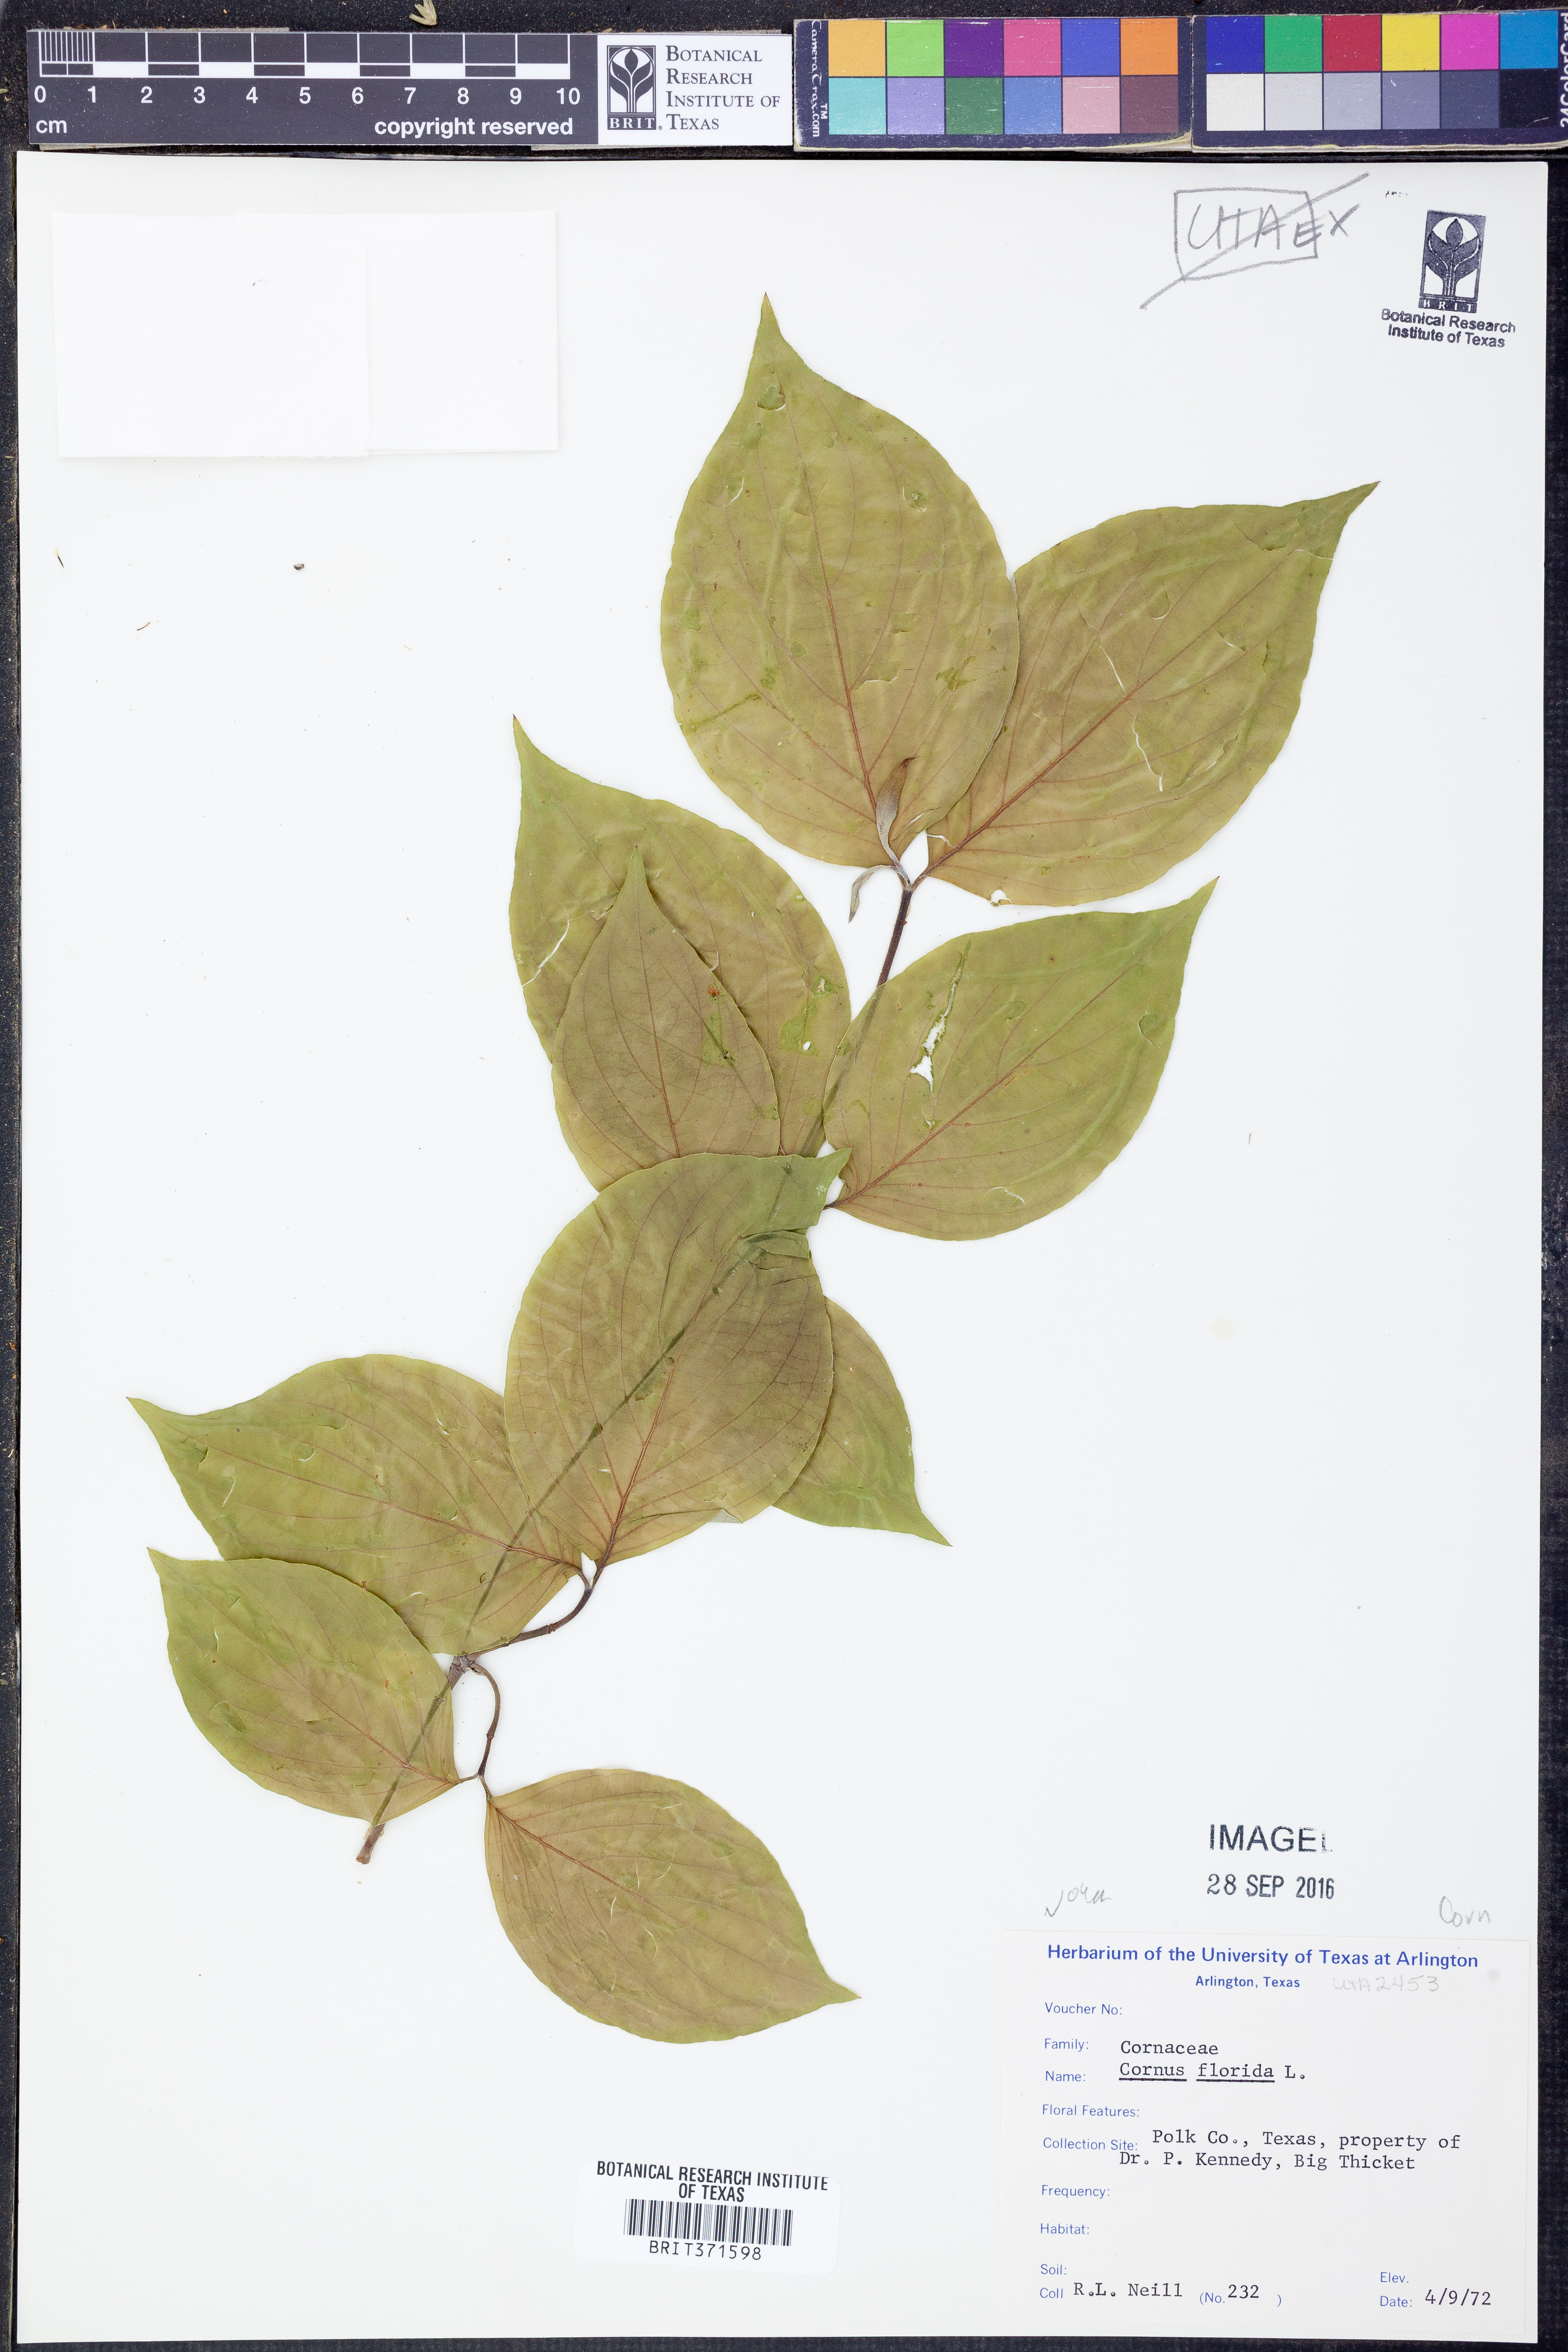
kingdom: Plantae
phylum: Tracheophyta
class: Magnoliopsida
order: Cornales
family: Cornaceae
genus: Cornus
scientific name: Cornus florida
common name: Flowering dogwood
